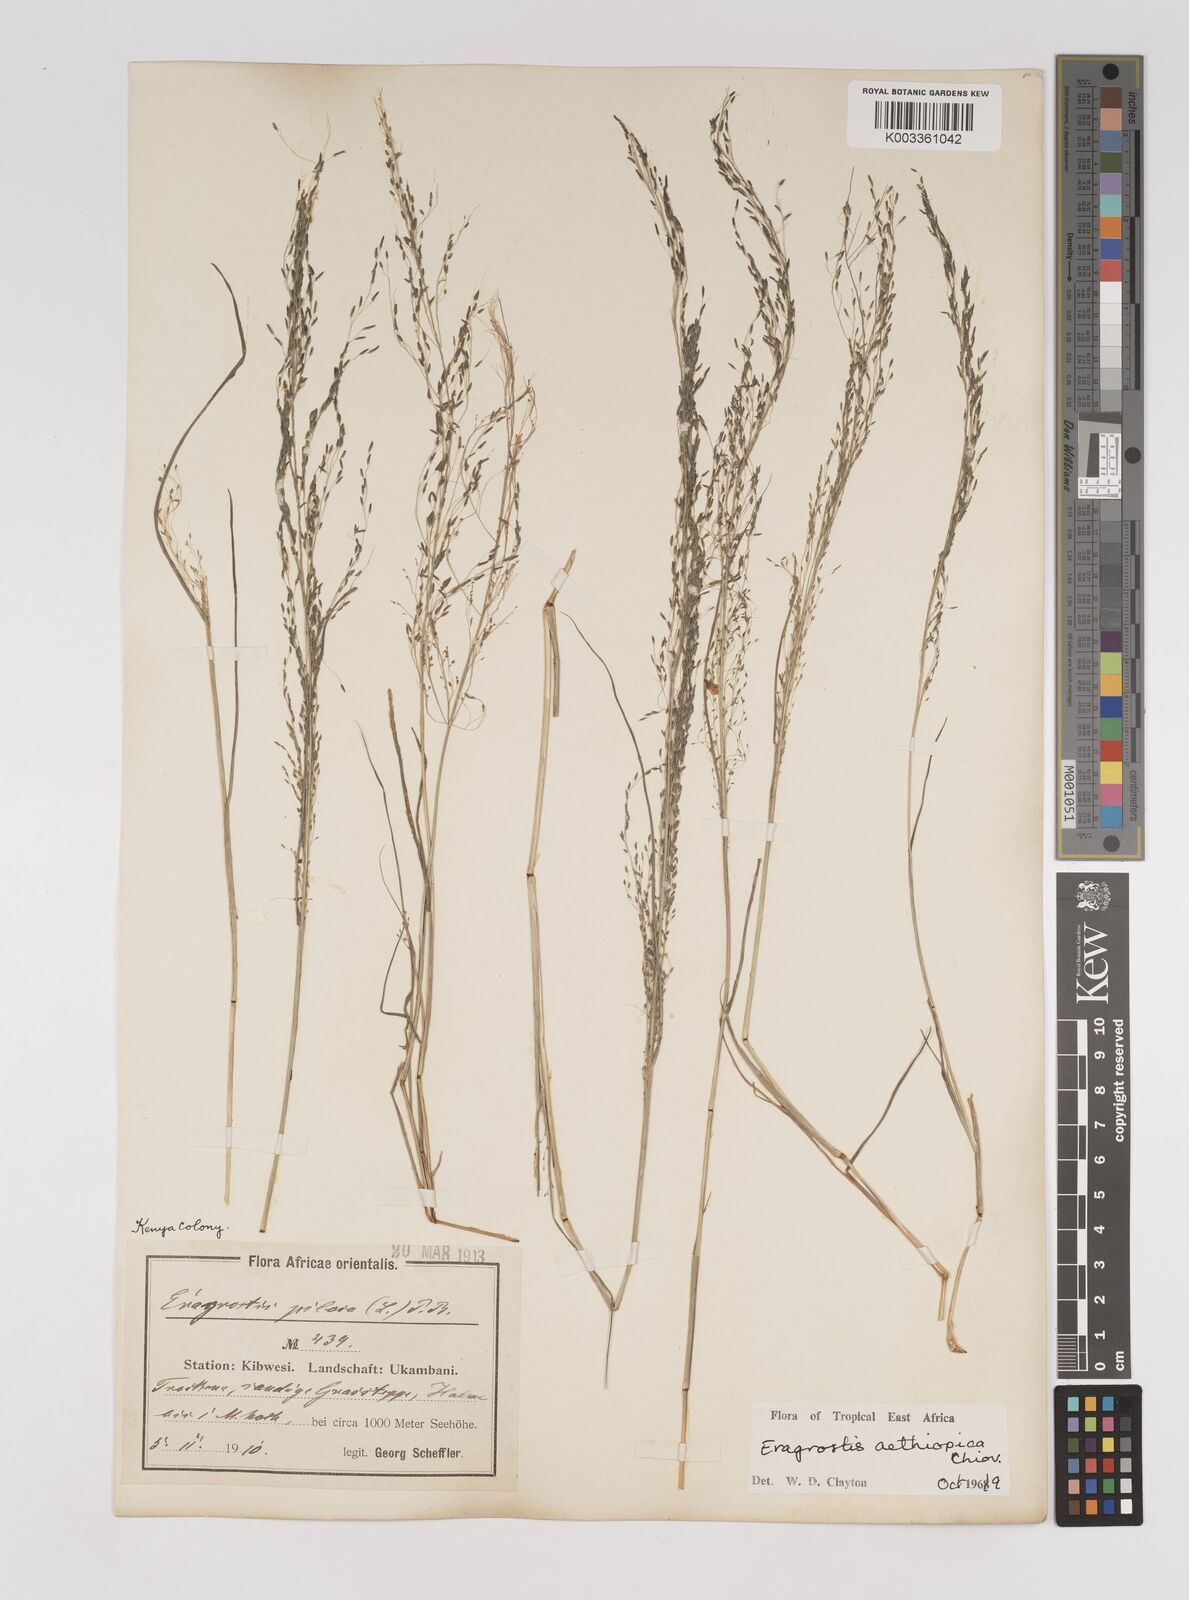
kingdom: Plantae
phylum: Tracheophyta
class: Liliopsida
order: Poales
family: Poaceae
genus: Eragrostis
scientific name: Eragrostis aethiopica
